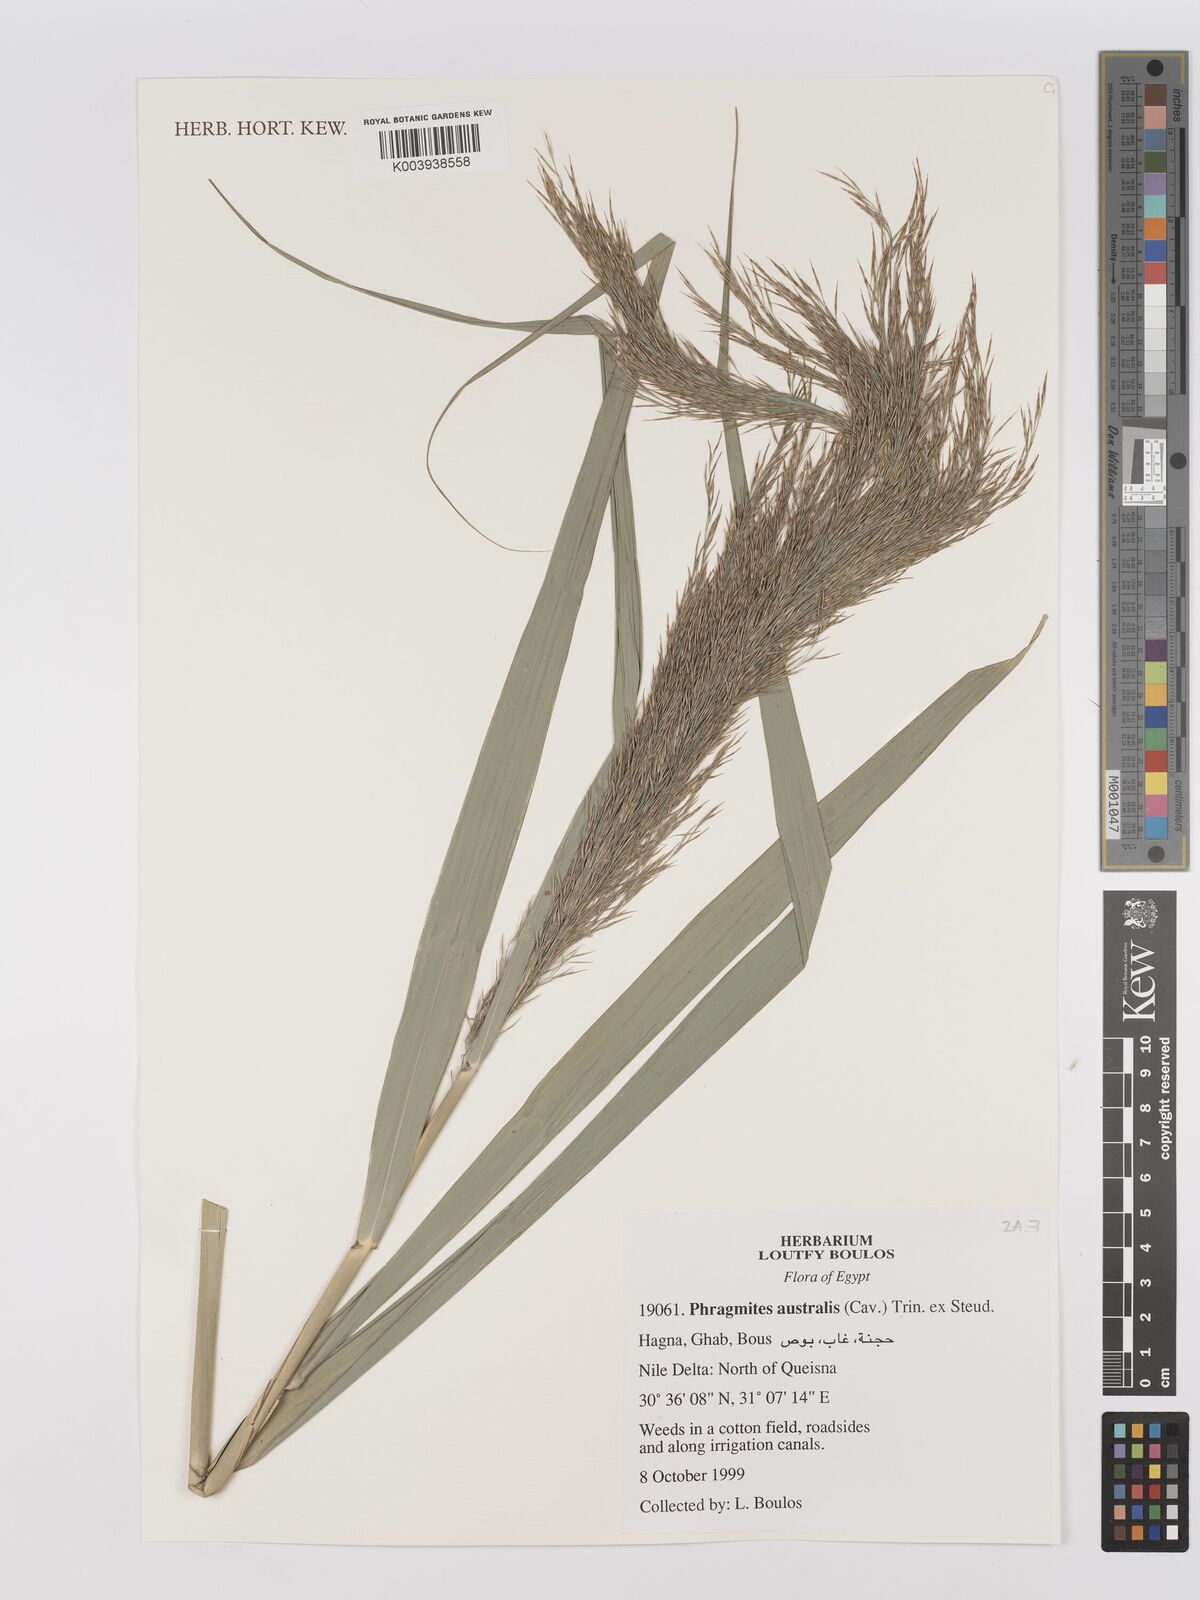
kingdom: Plantae
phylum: Tracheophyta
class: Liliopsida
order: Poales
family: Poaceae
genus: Phragmites
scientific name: Phragmites australis
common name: Common reed
